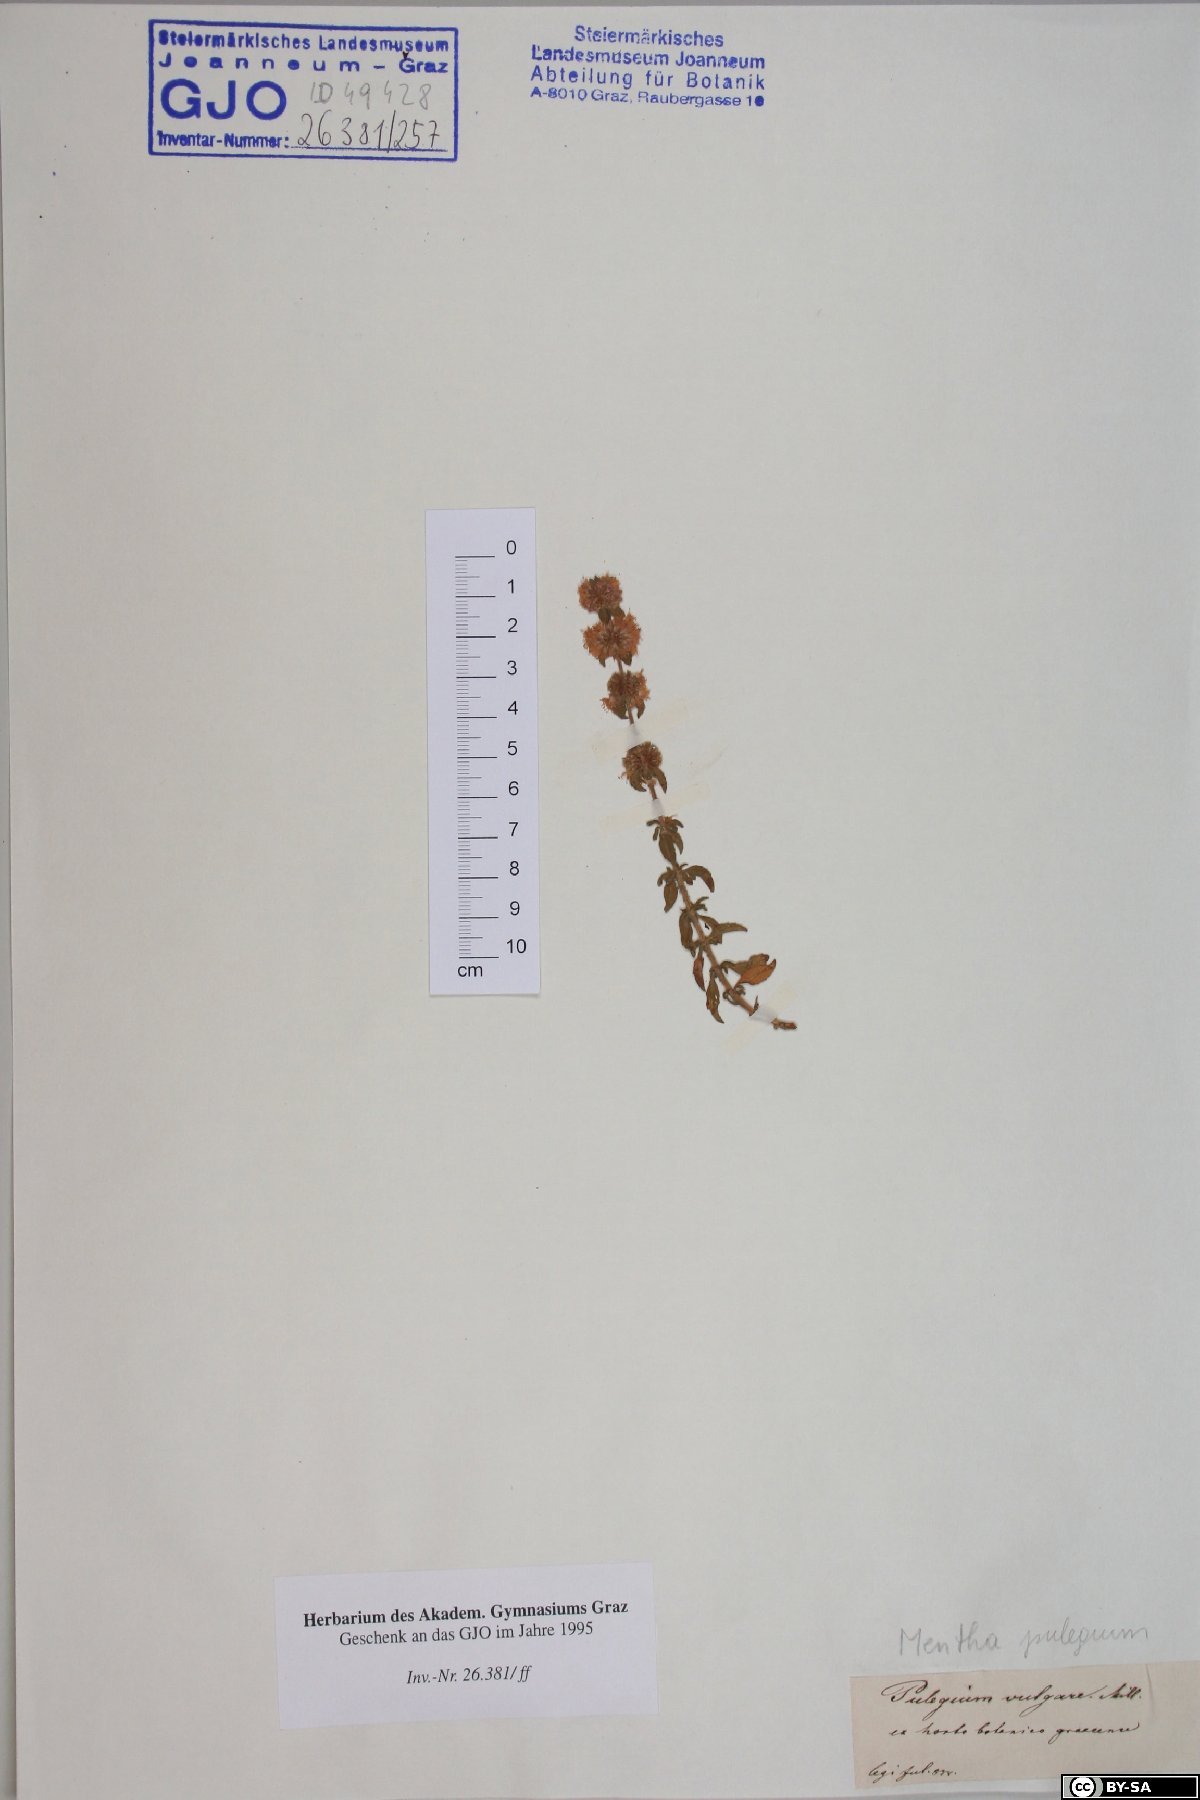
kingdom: Plantae
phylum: Tracheophyta
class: Magnoliopsida
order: Lamiales
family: Lamiaceae
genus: Mentha
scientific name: Mentha pulegium
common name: Pennyroyal
